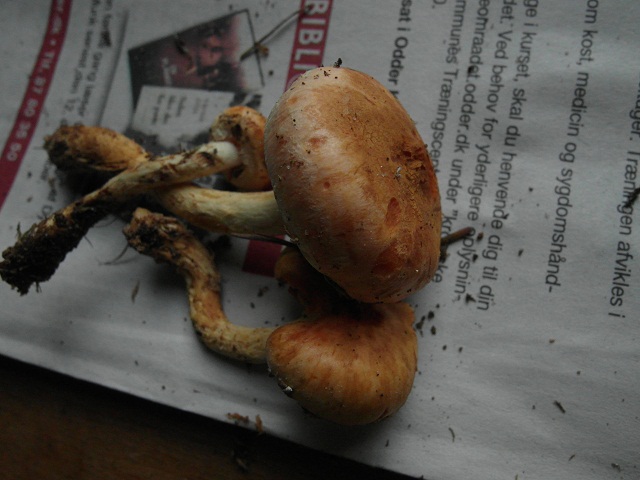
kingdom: Fungi
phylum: Basidiomycota
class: Agaricomycetes
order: Agaricales
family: Strophariaceae
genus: Pyrrhulomyces
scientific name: Pyrrhulomyces astragalinus
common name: safran-skælhat
